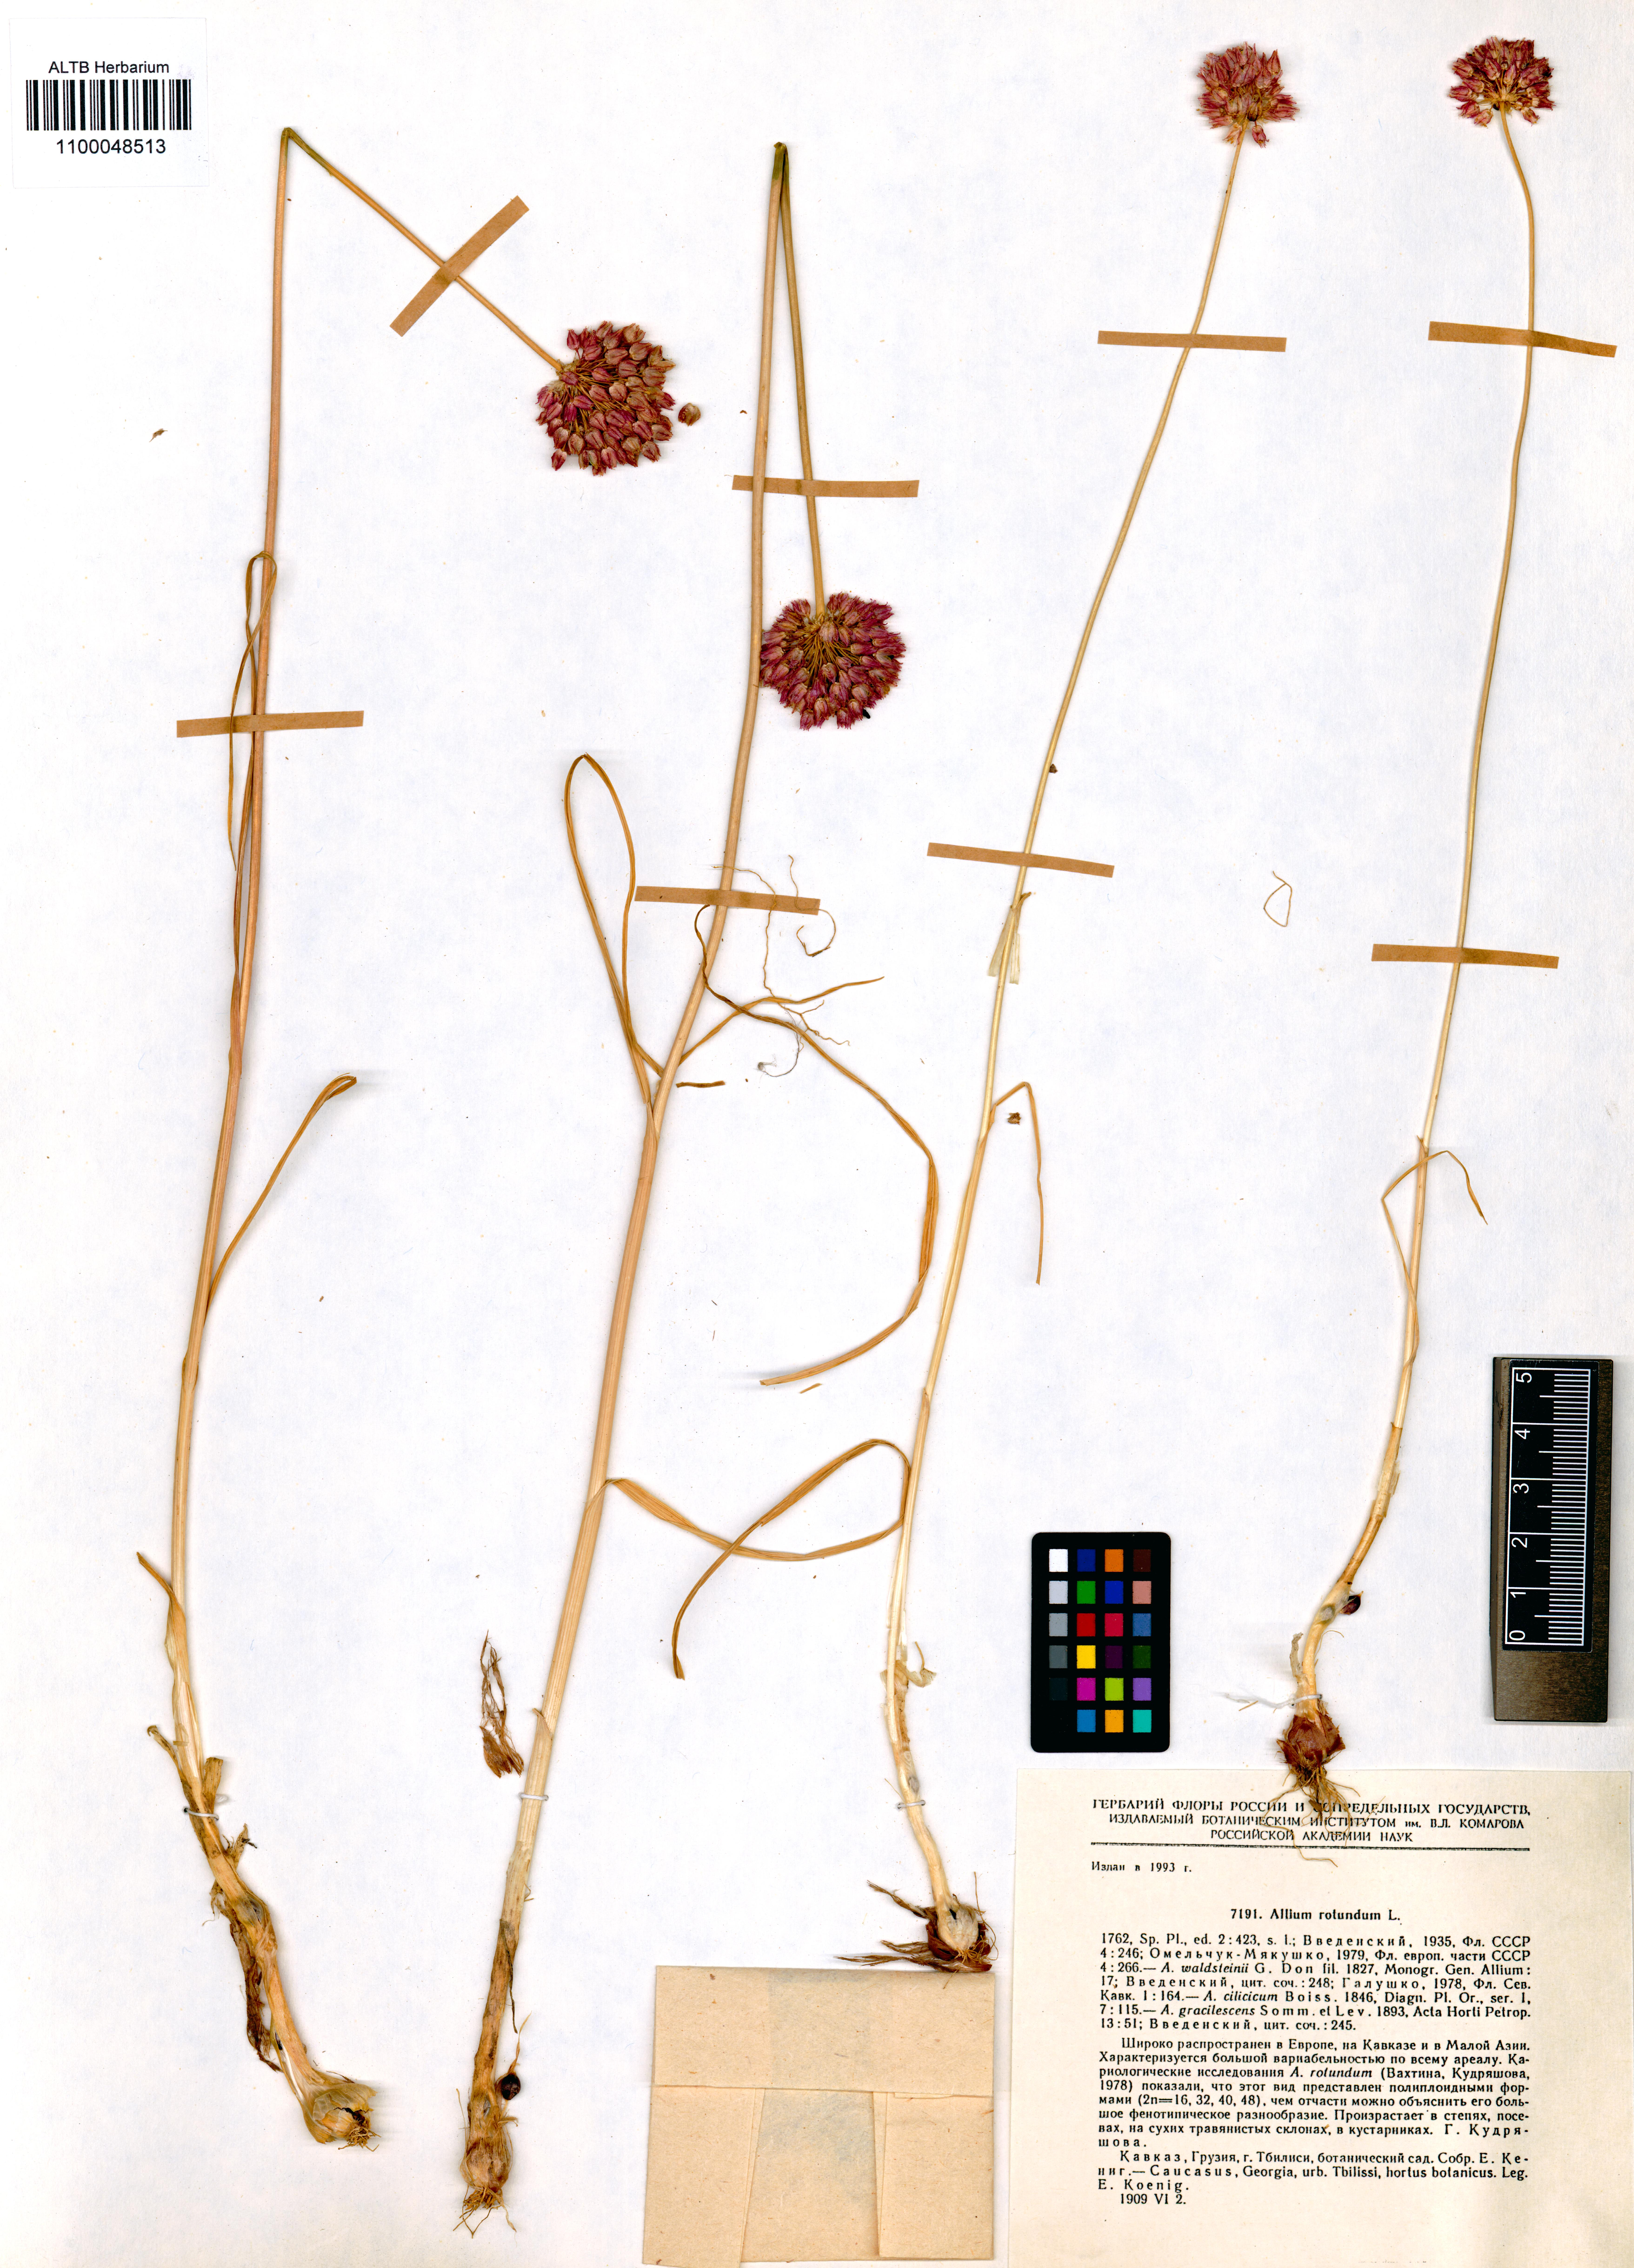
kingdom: Plantae
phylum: Tracheophyta
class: Liliopsida
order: Asparagales
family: Amaryllidaceae
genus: Allium
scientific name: Allium rotundum
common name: Sand leek
